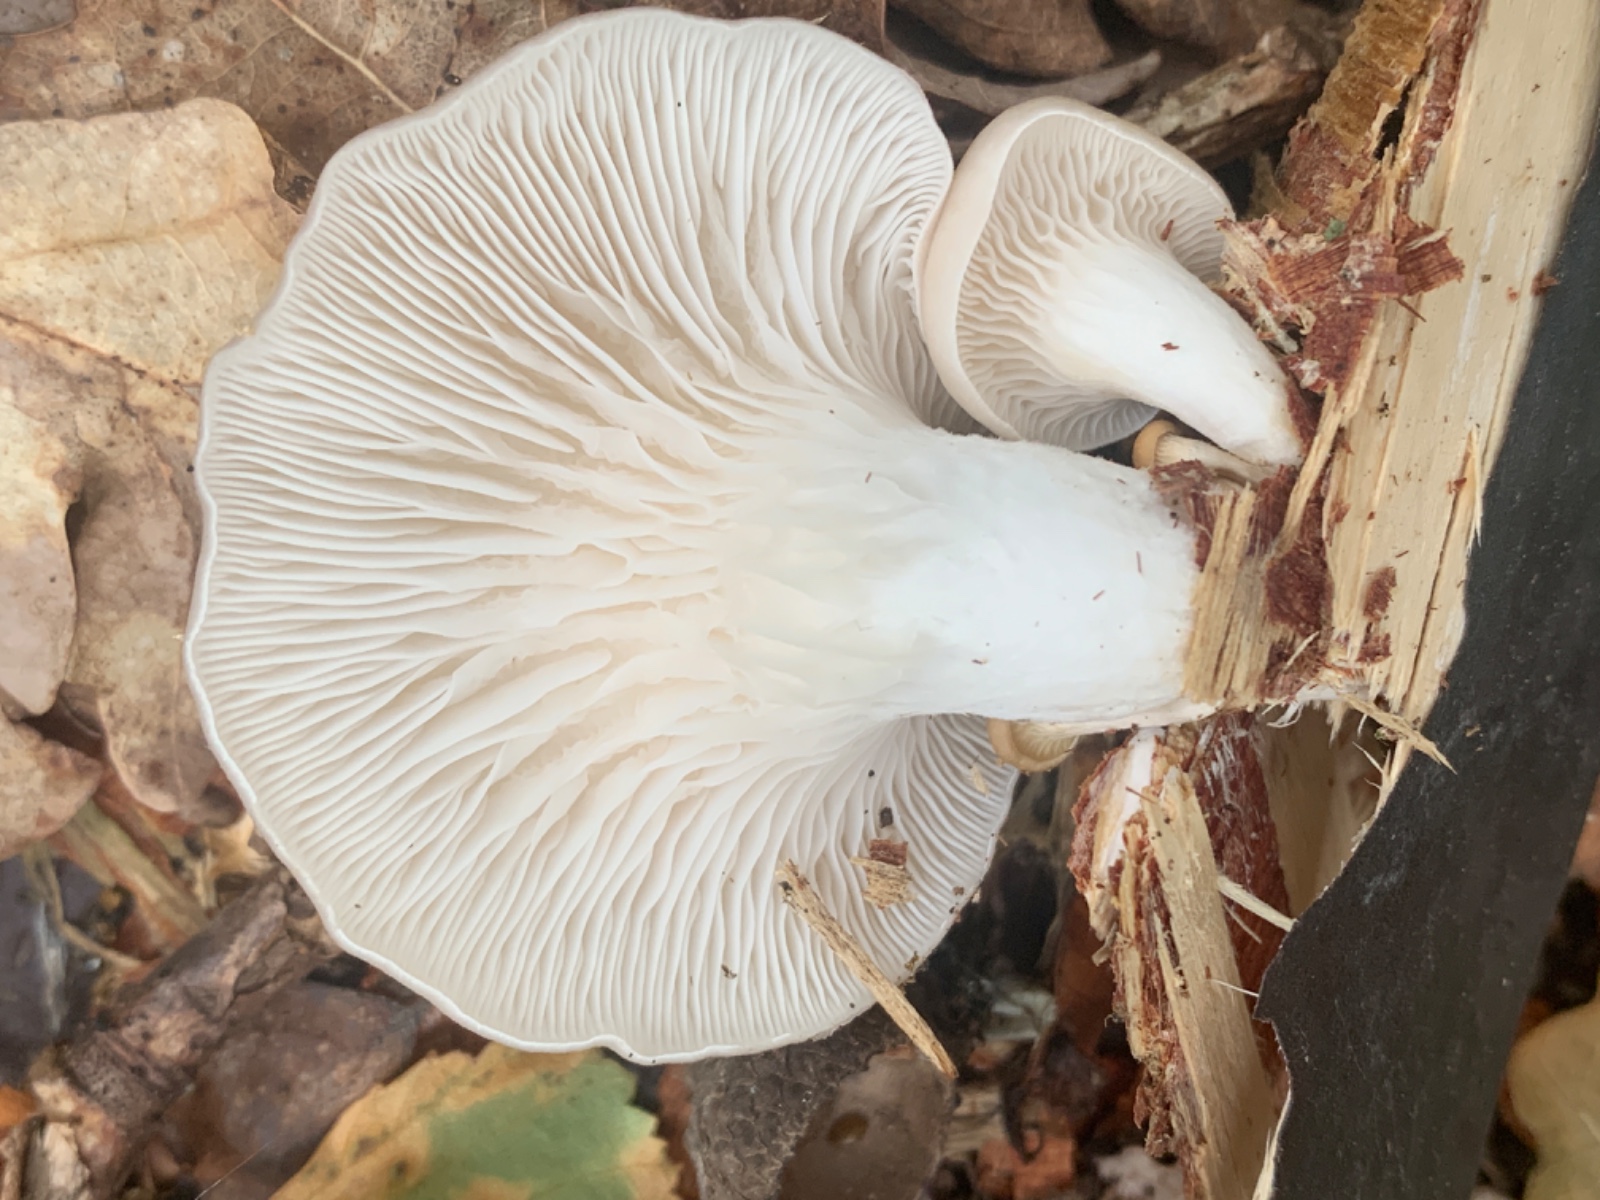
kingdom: Fungi
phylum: Basidiomycota
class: Agaricomycetes
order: Agaricales
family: Pleurotaceae
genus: Pleurotus
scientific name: Pleurotus pulmonarius
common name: sommer-østershat
